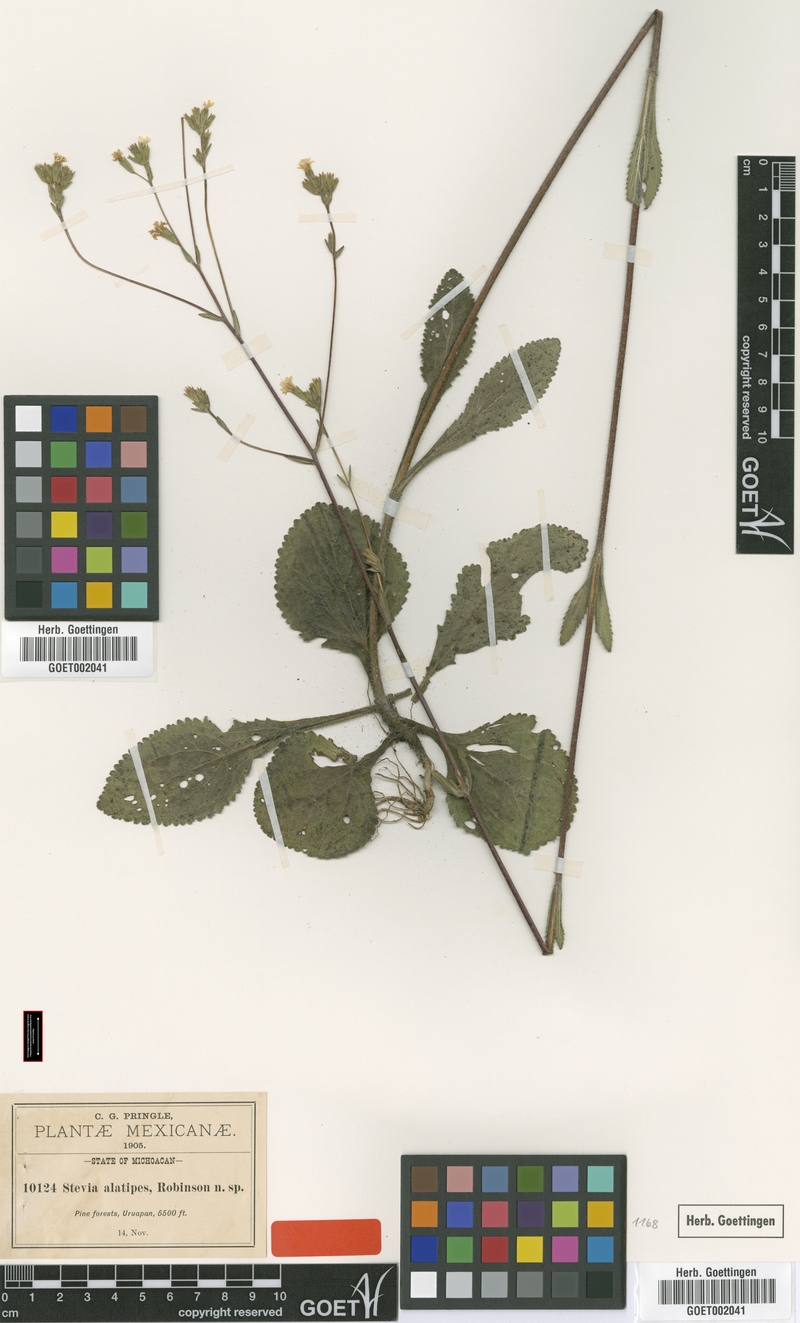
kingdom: Plantae
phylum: Tracheophyta
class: Magnoliopsida
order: Asterales
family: Asteraceae
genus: Stevia
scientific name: Stevia alatipes
